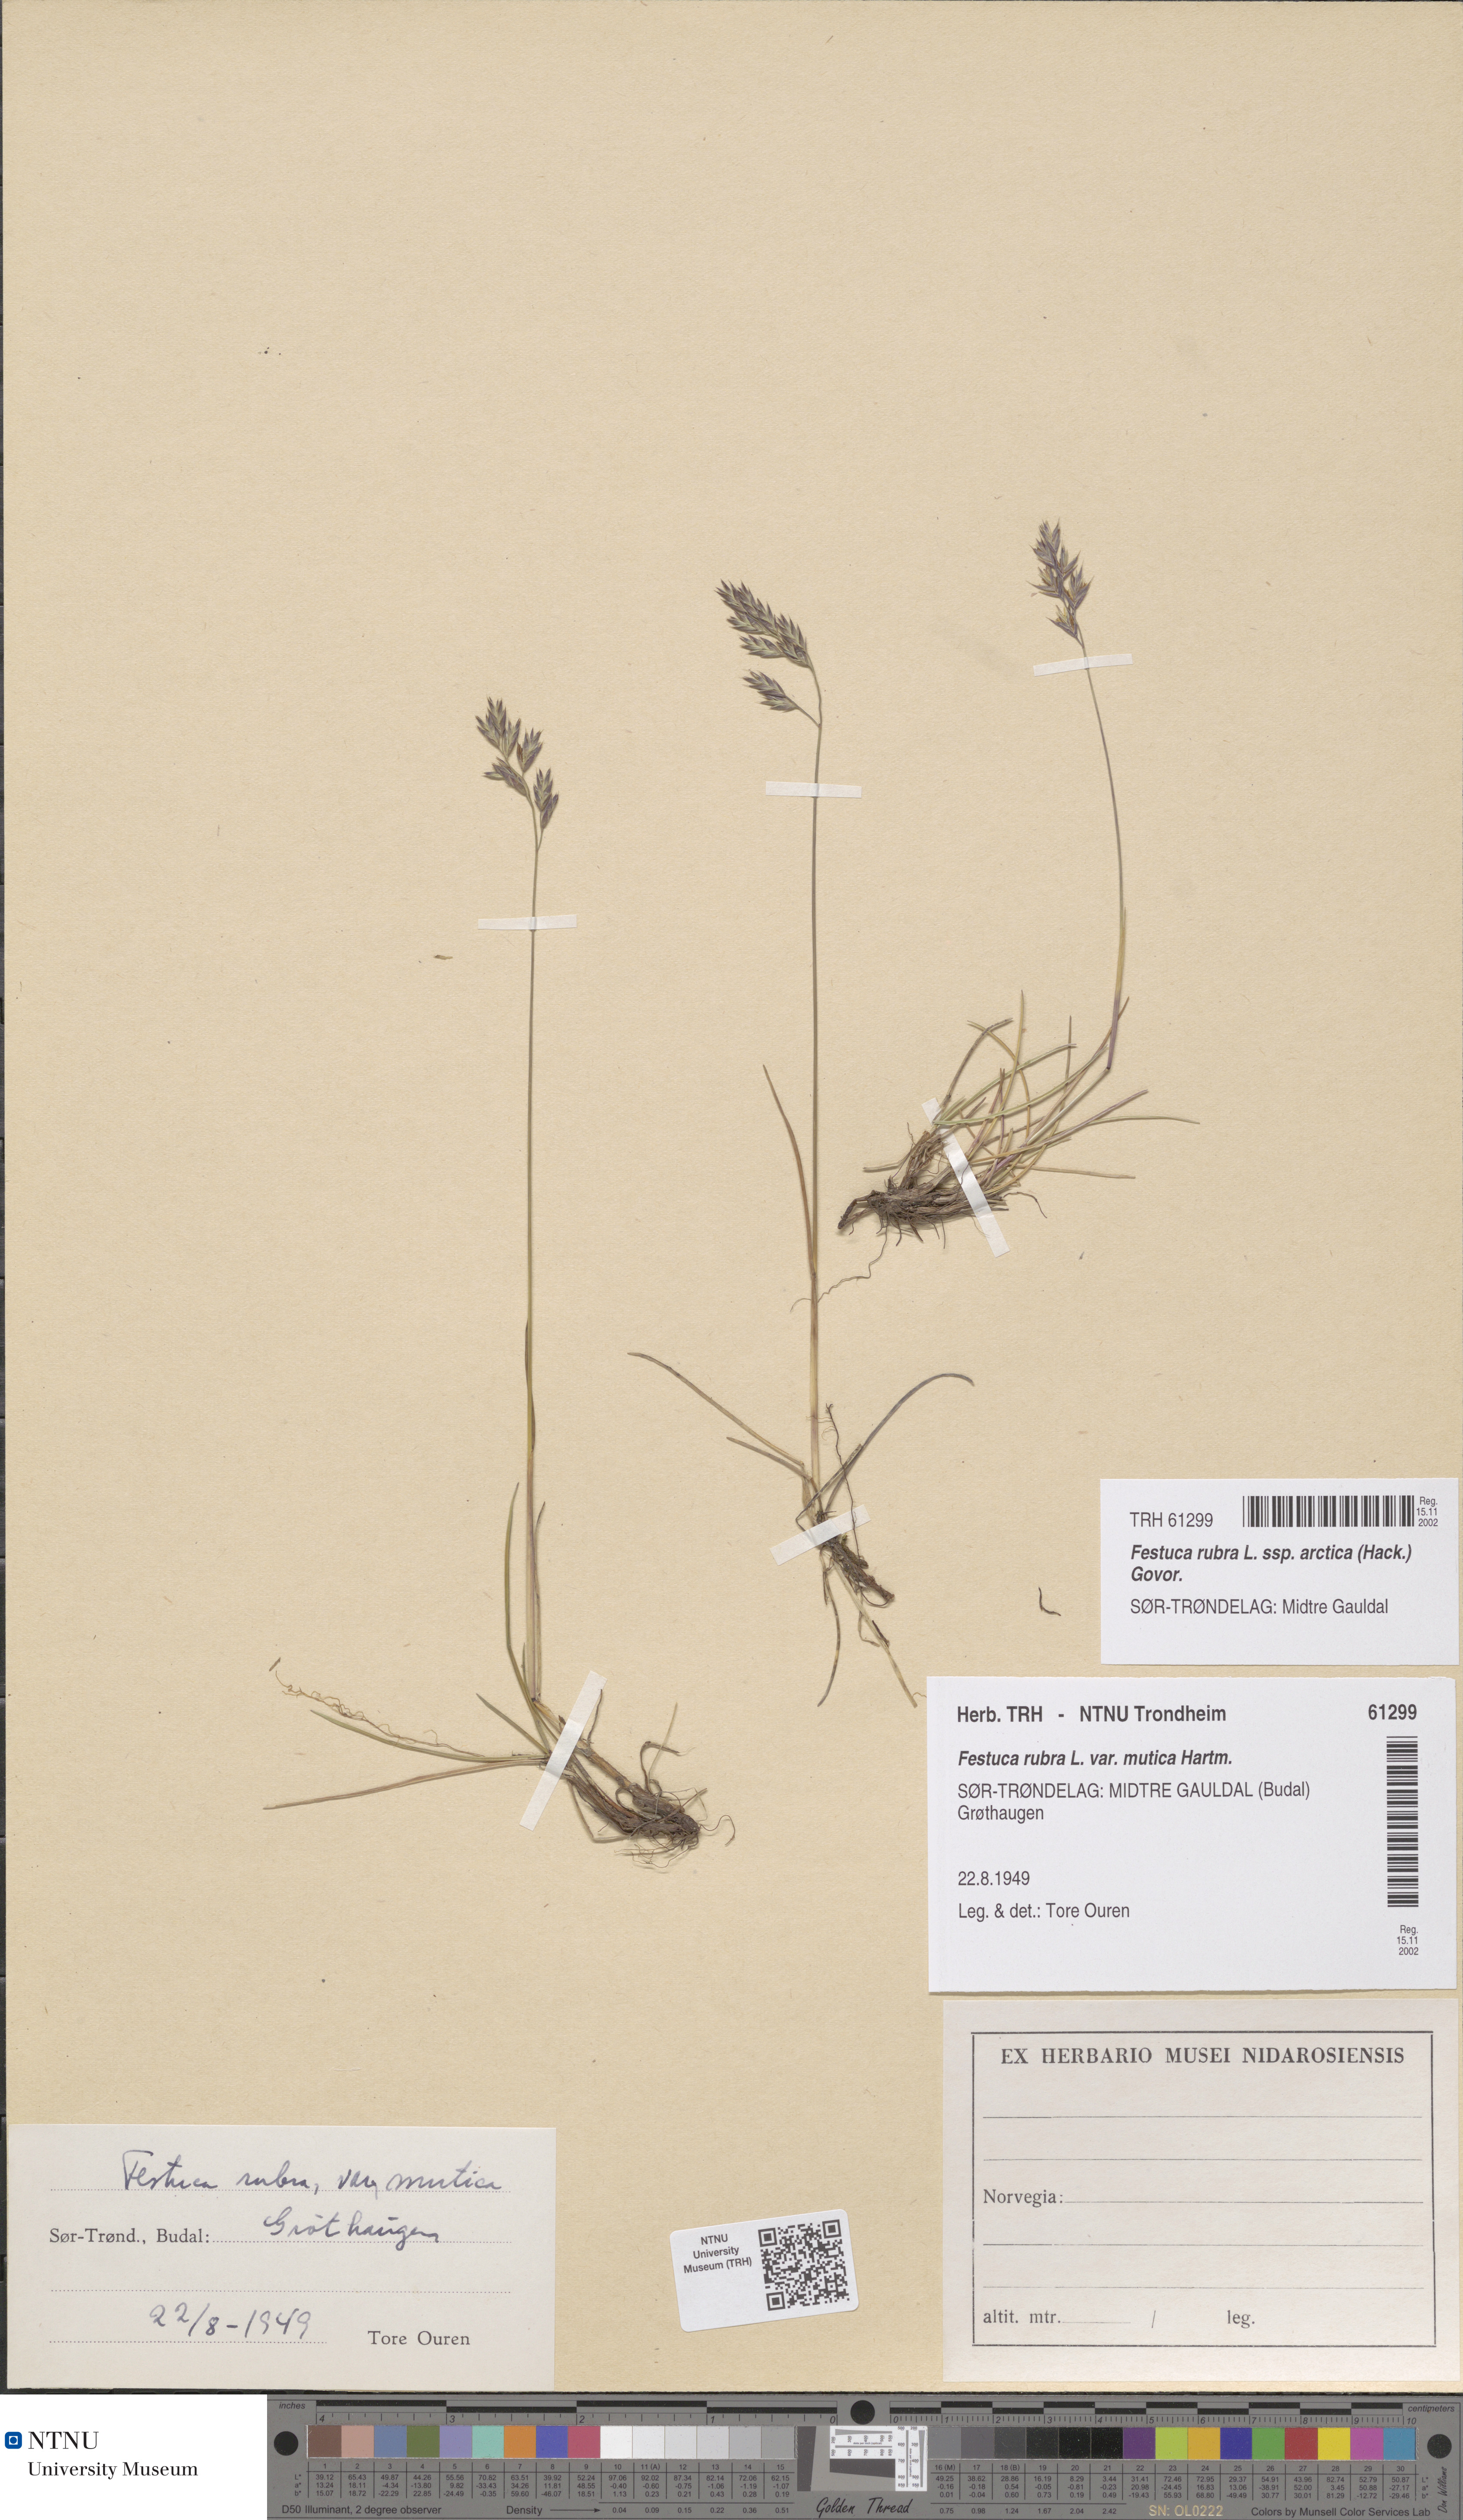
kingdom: Plantae
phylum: Tracheophyta
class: Liliopsida
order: Poales
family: Poaceae
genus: Festuca
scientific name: Festuca richardsonii
